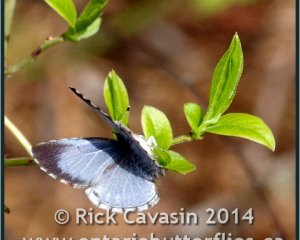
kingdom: Animalia
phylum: Arthropoda
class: Insecta
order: Lepidoptera
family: Lycaenidae
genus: Celastrina
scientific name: Celastrina lucia
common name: Northern Spring Azure
